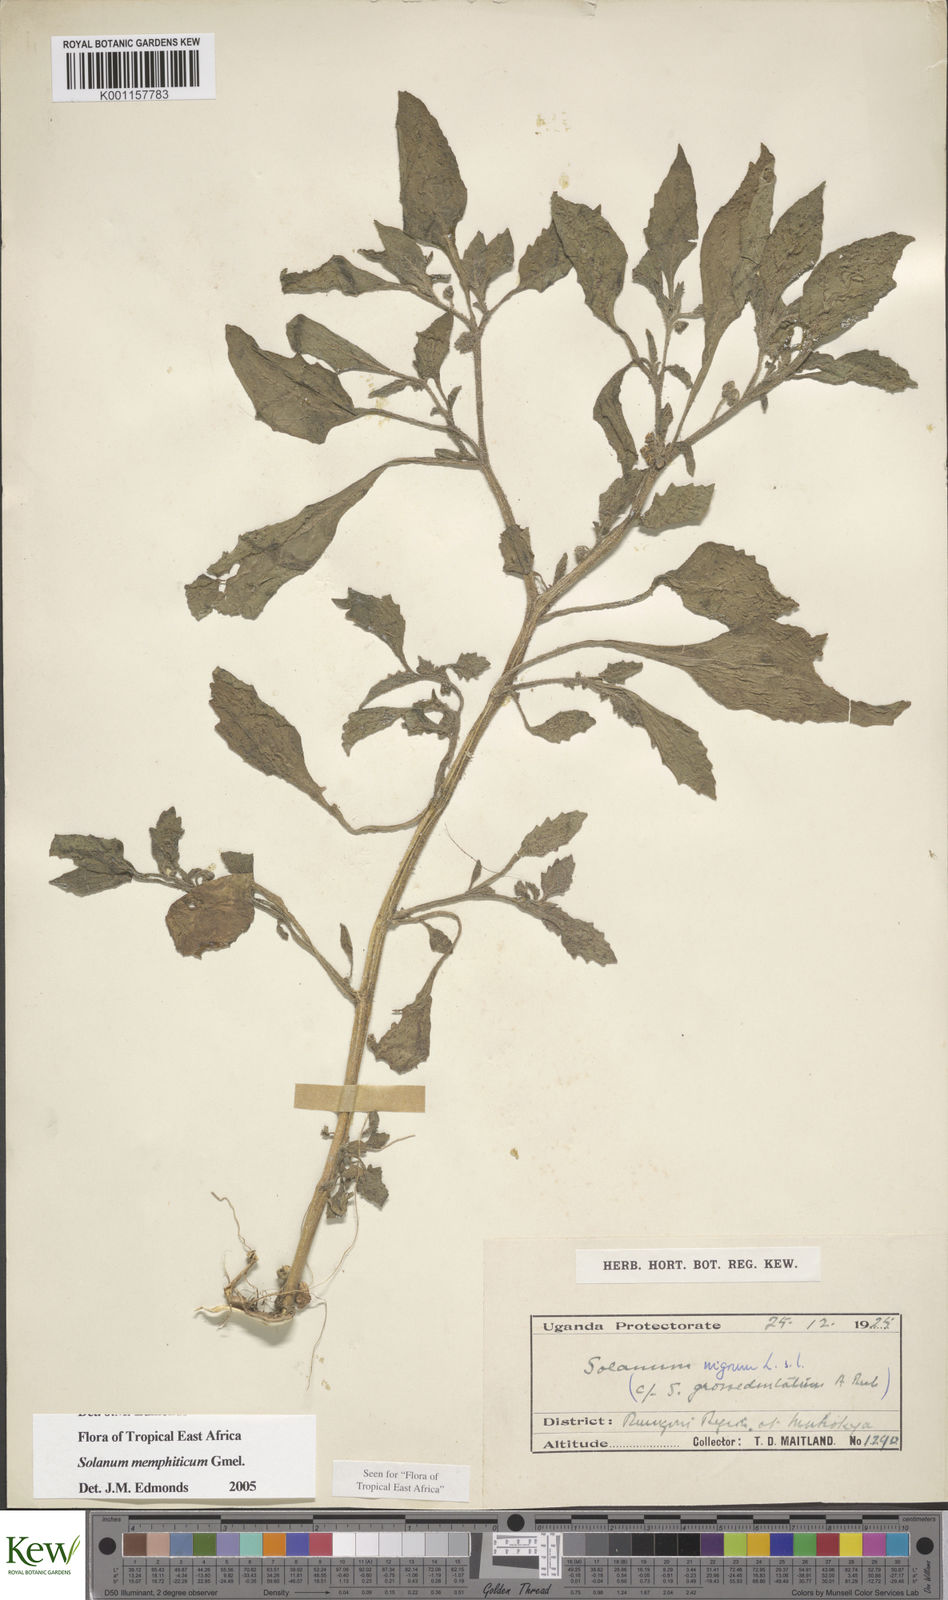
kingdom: Plantae
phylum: Tracheophyta
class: Magnoliopsida
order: Solanales
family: Solanaceae
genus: Solanum
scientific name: Solanum memphiticum
